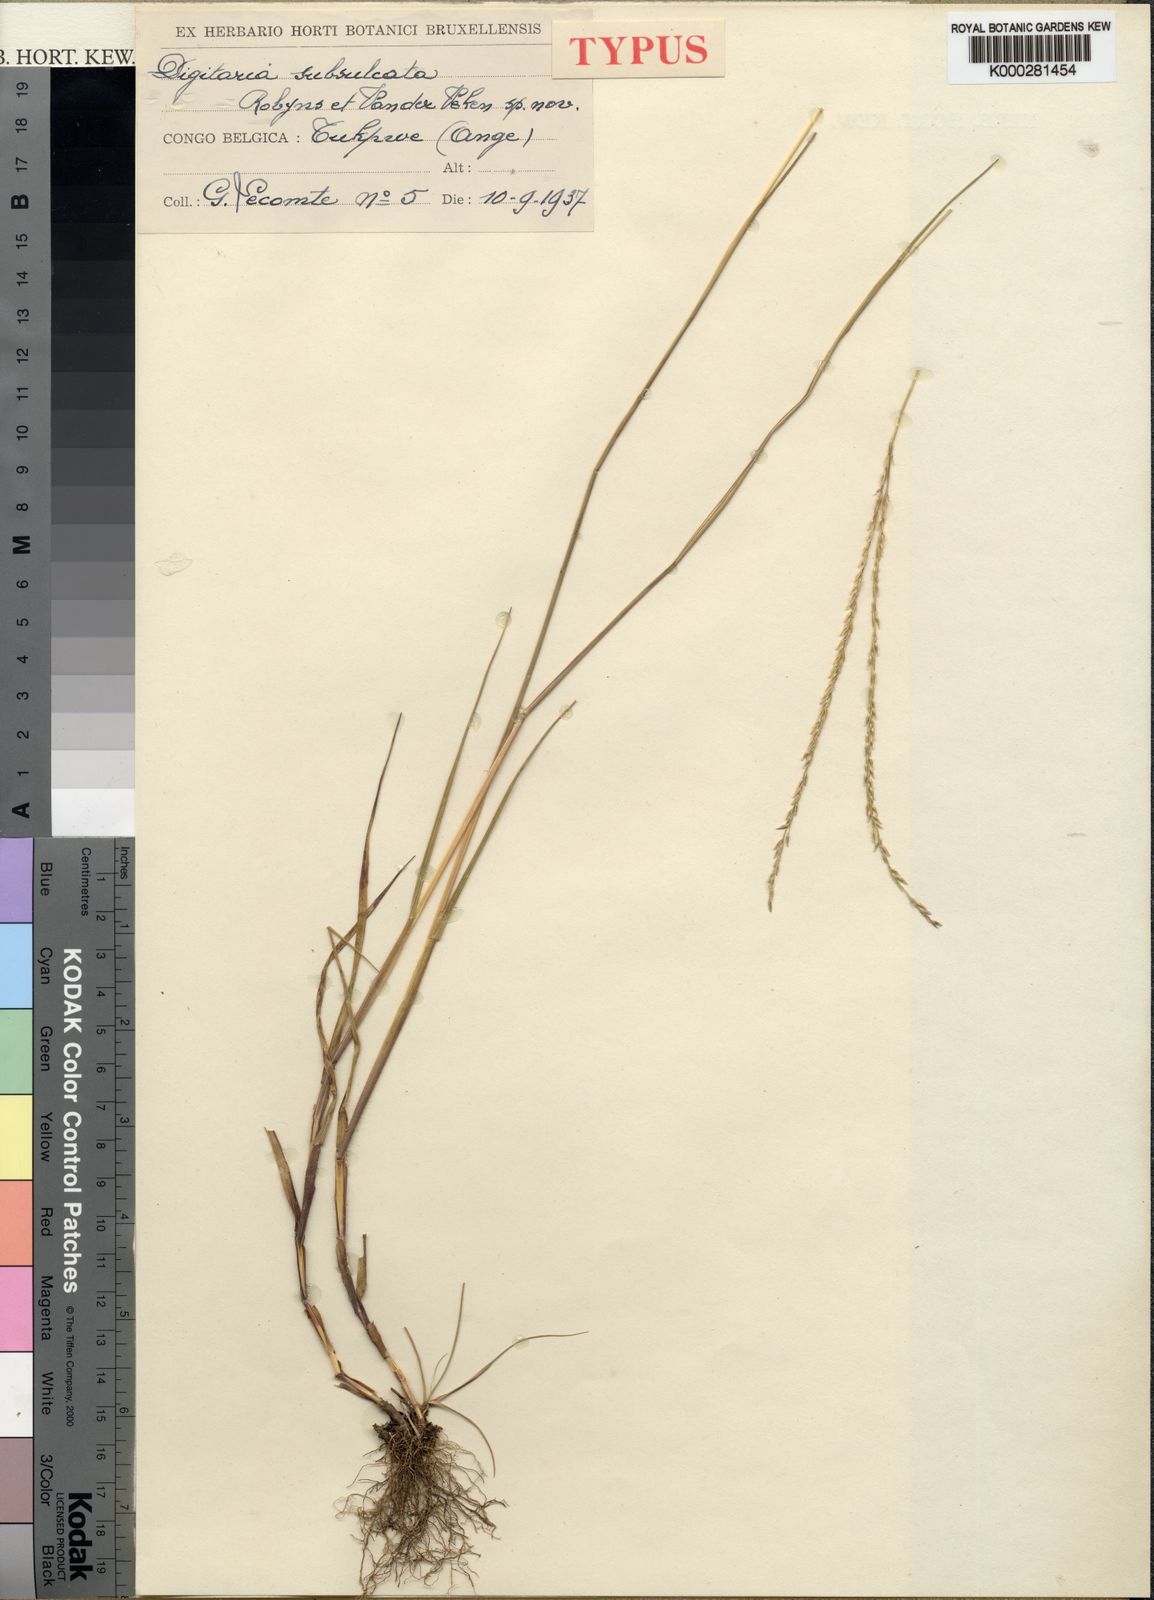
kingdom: Plantae
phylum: Tracheophyta
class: Liliopsida
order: Poales
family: Poaceae
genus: Digitaria
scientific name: Digitaria subsulcata
